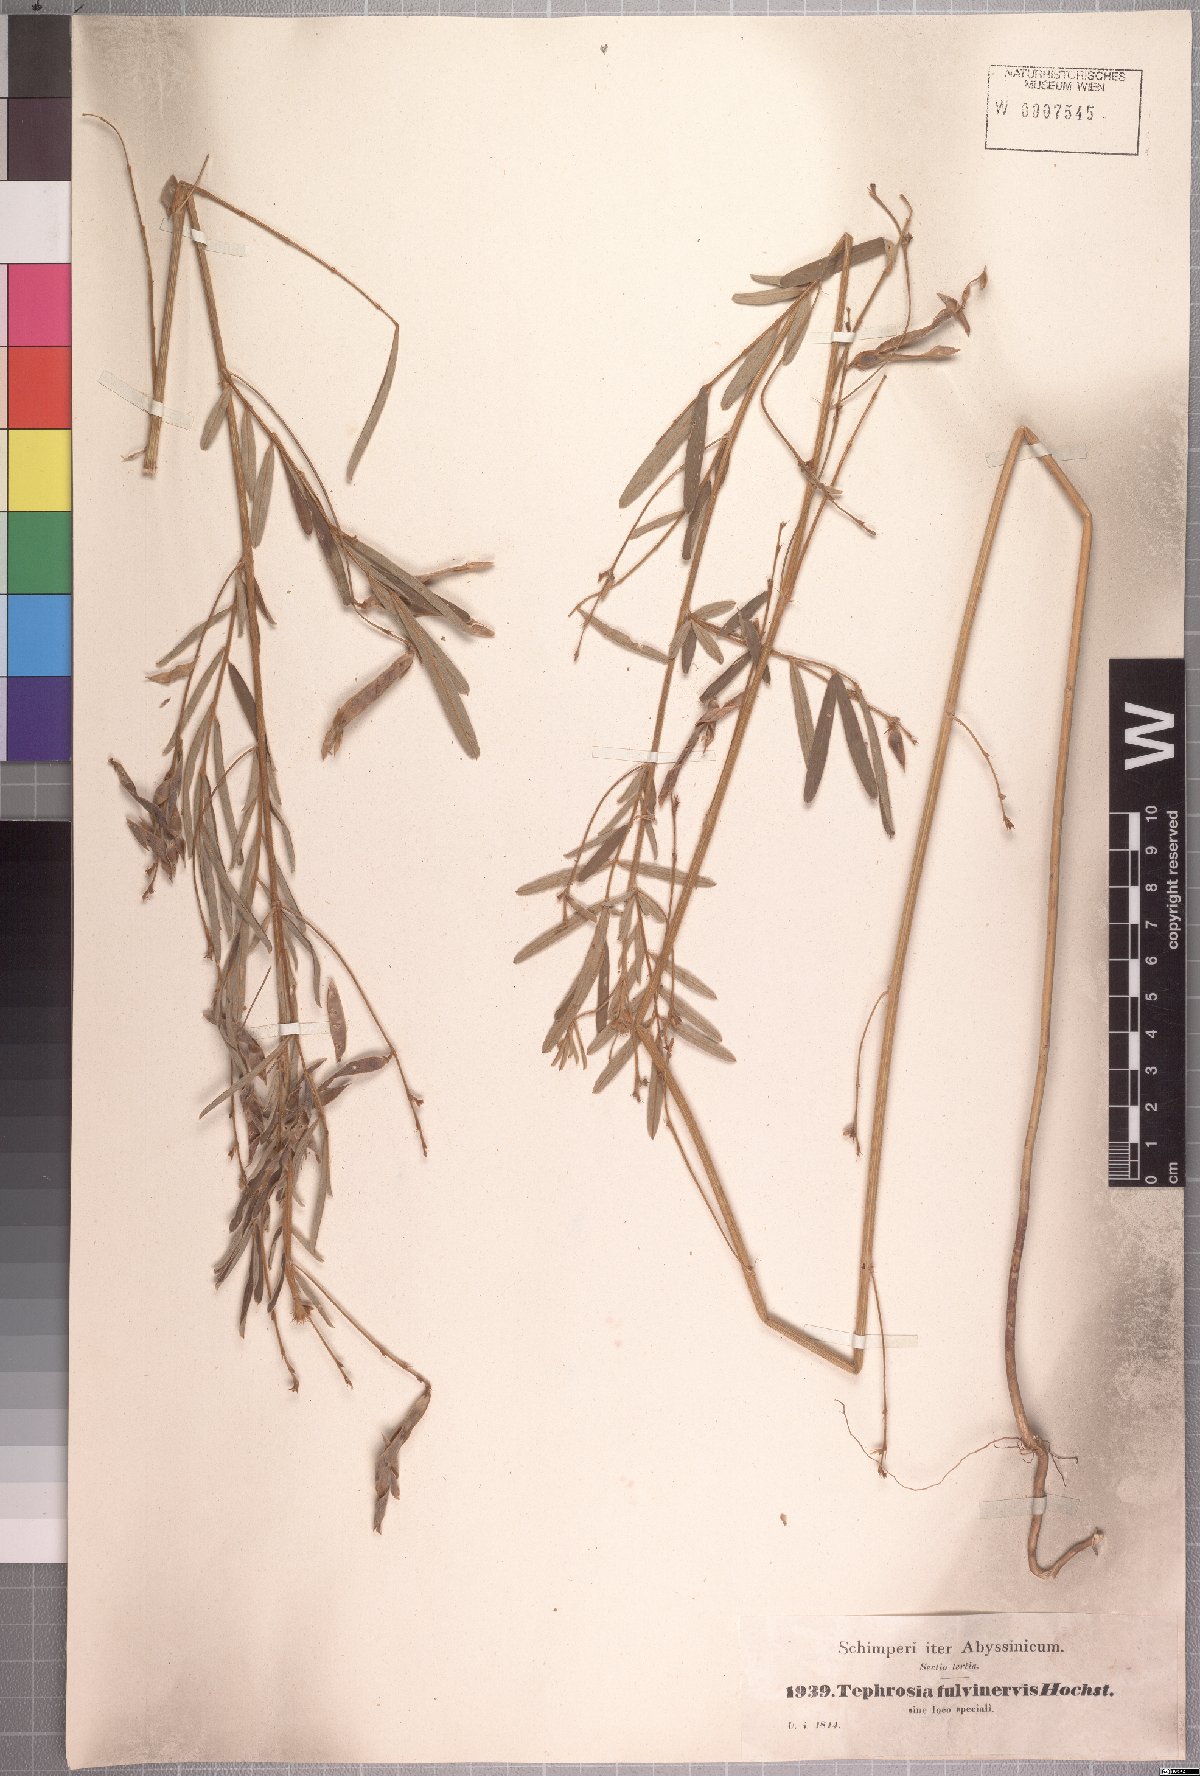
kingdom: Plantae
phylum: Tracheophyta
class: Magnoliopsida
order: Fabales
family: Fabaceae
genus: Tephrosia
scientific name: Tephrosia fulvinervis
